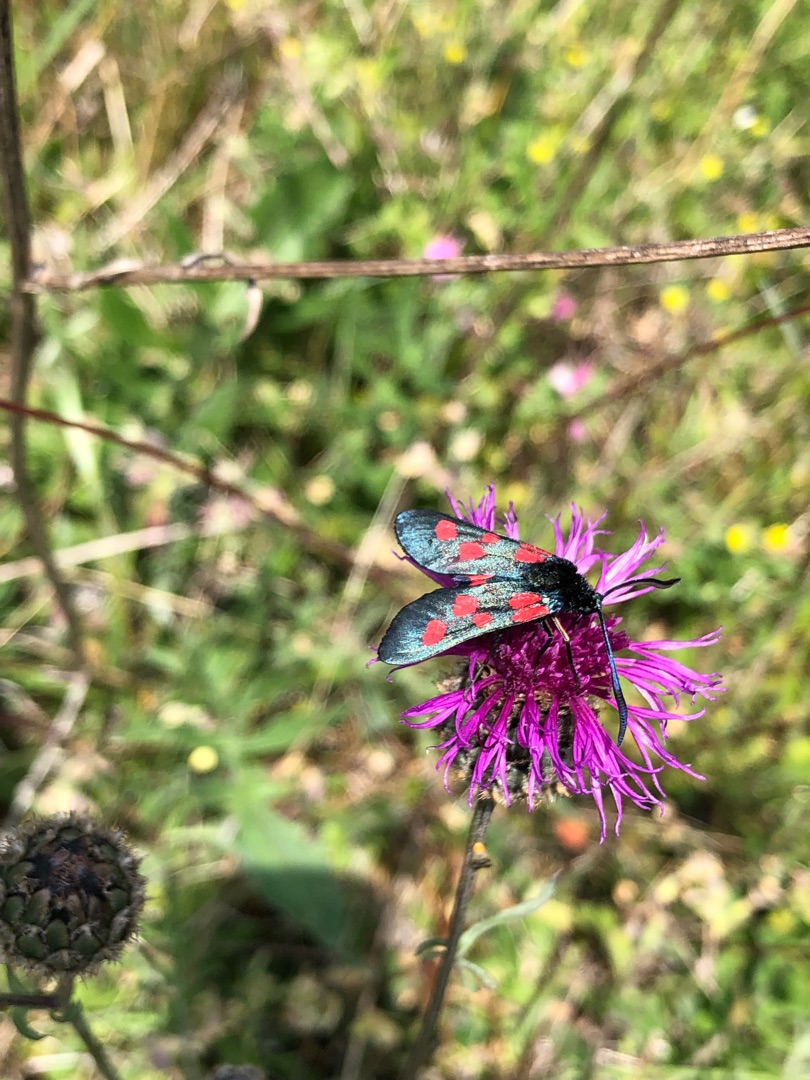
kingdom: Animalia
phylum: Arthropoda
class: Insecta
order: Lepidoptera
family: Zygaenidae
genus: Zygaena
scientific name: Zygaena lonicerae
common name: Femplettet køllesværmer
